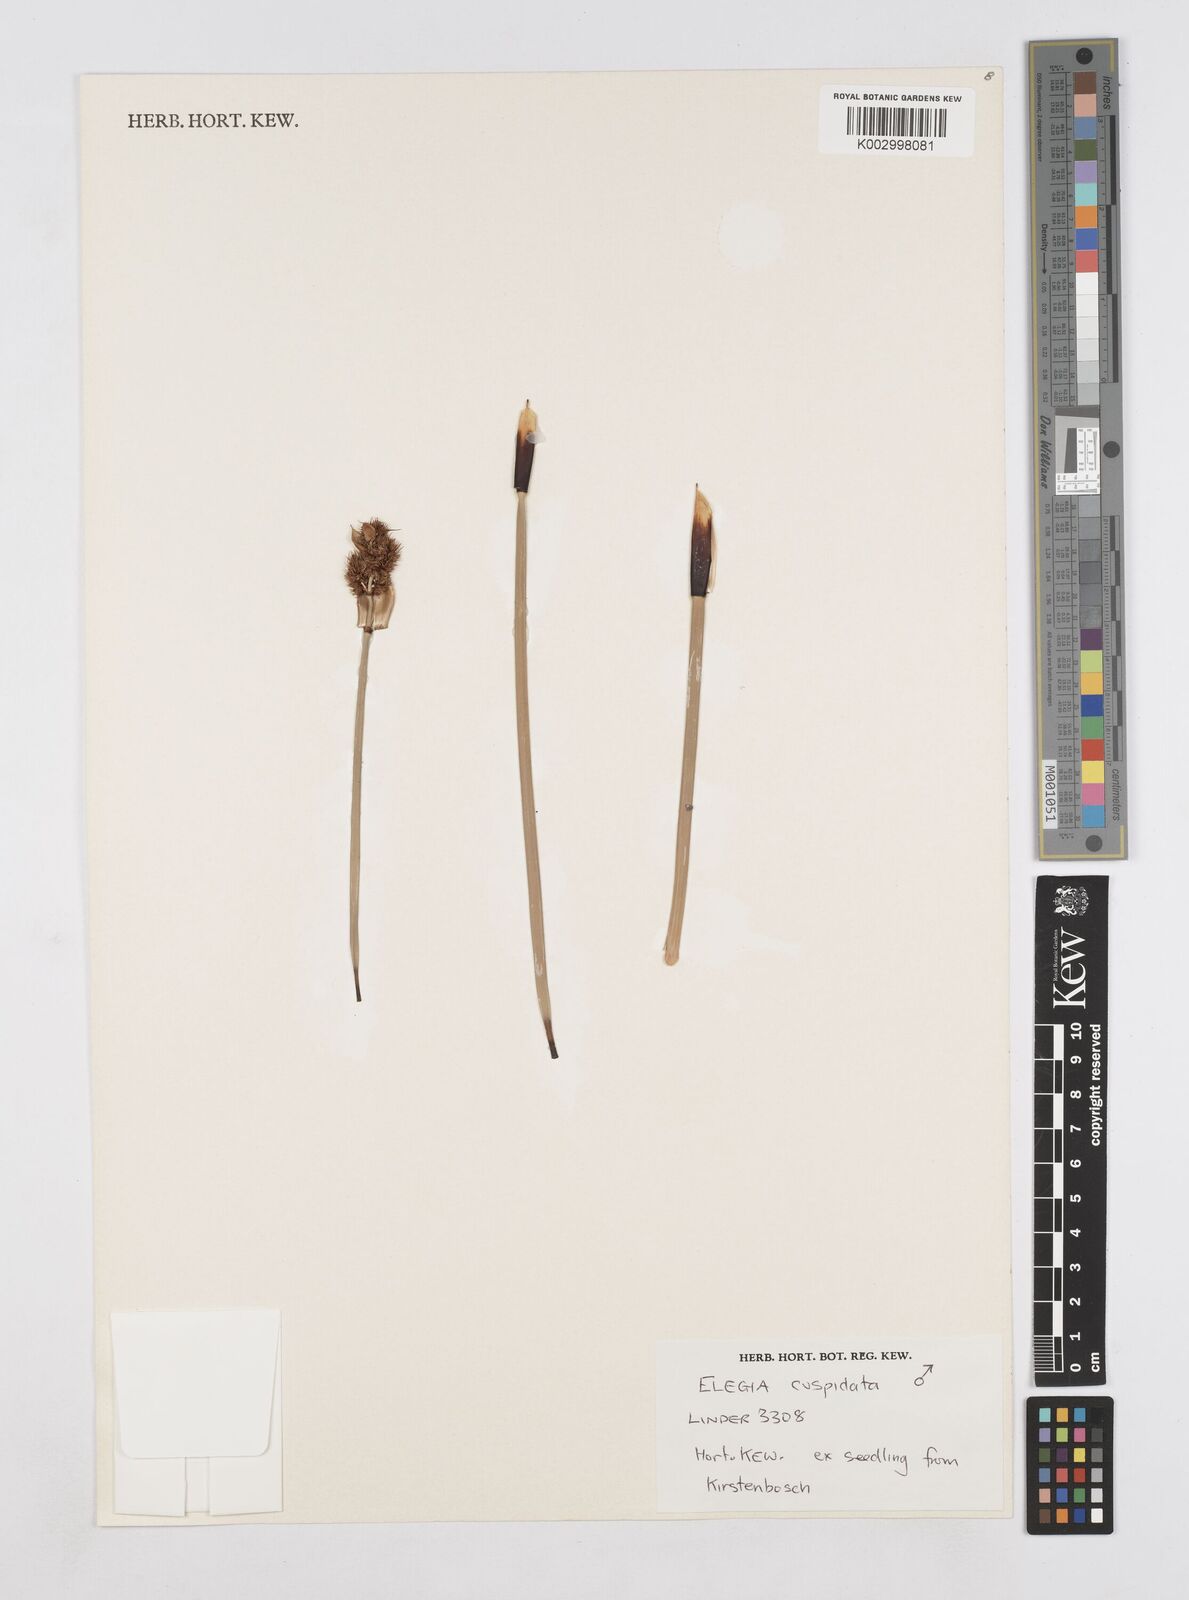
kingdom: Plantae
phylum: Tracheophyta
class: Liliopsida
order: Poales
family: Restionaceae
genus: Elegia
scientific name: Elegia cuspidata
